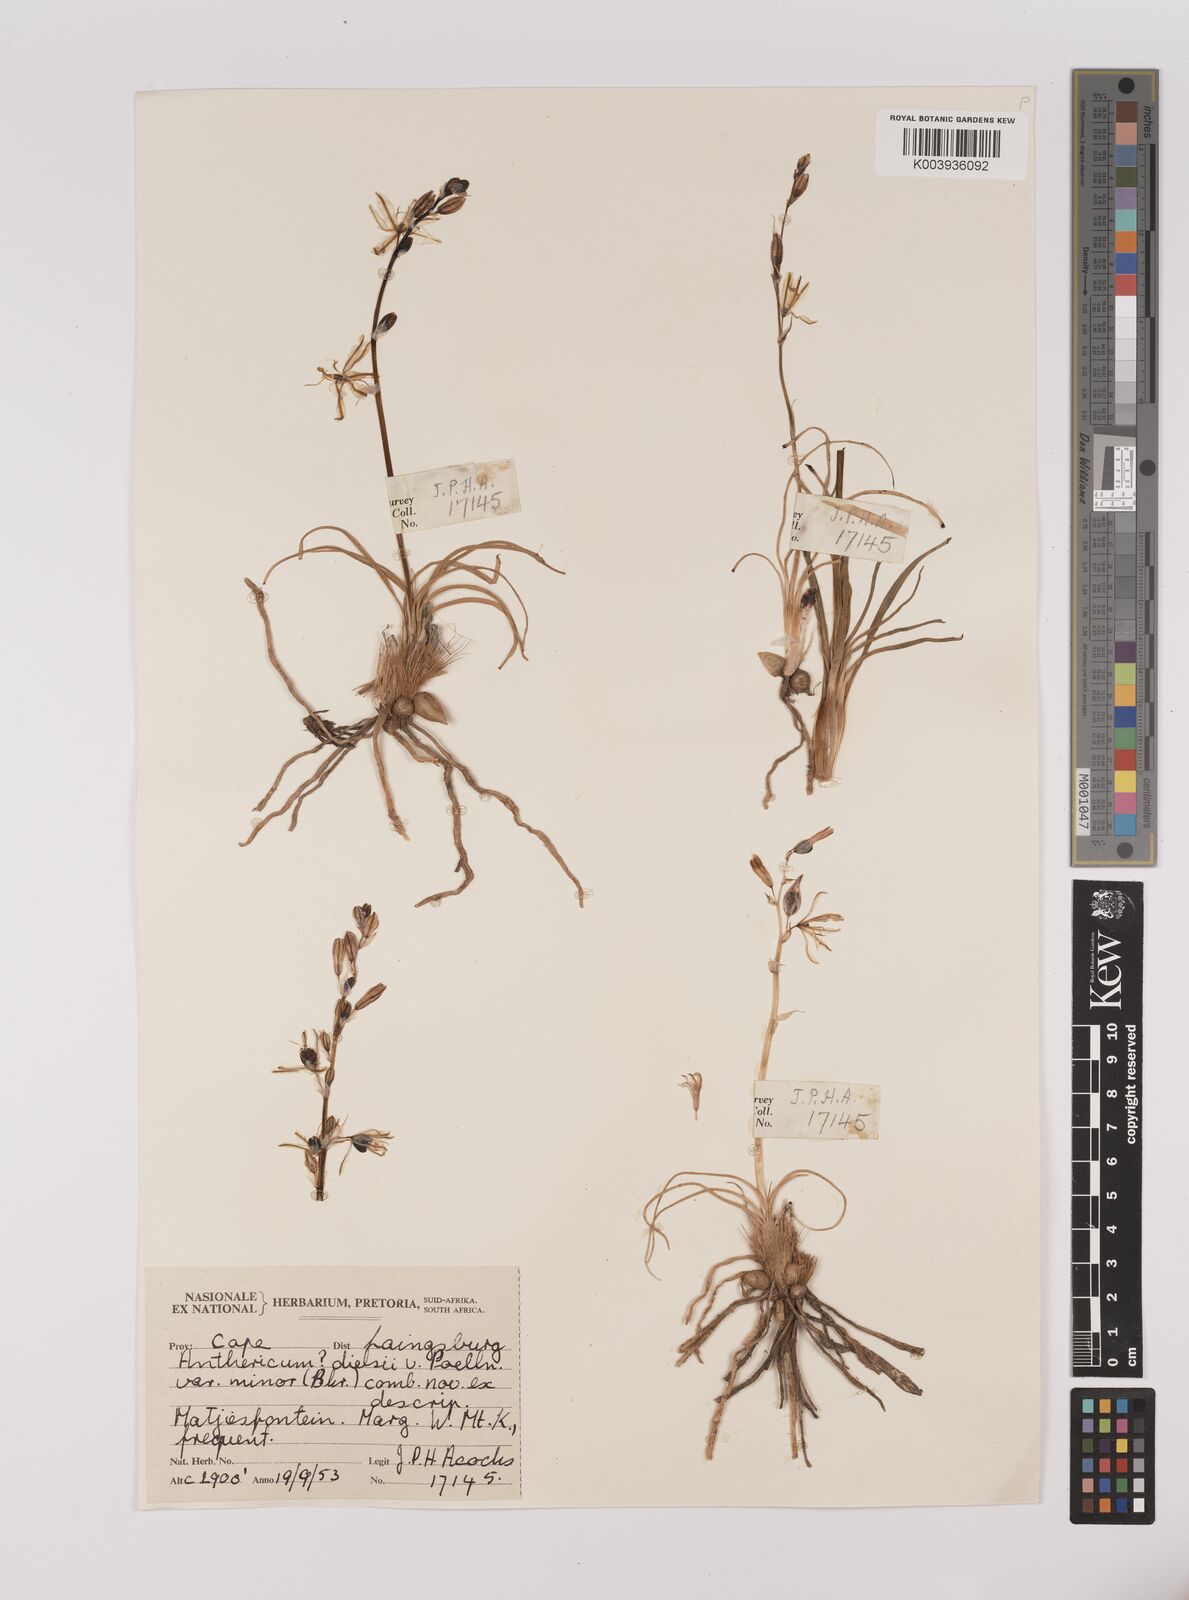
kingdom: Plantae
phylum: Tracheophyta
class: Liliopsida
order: Asparagales
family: Asparagaceae
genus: Chlorophytum
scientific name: Chlorophytum triflorum
